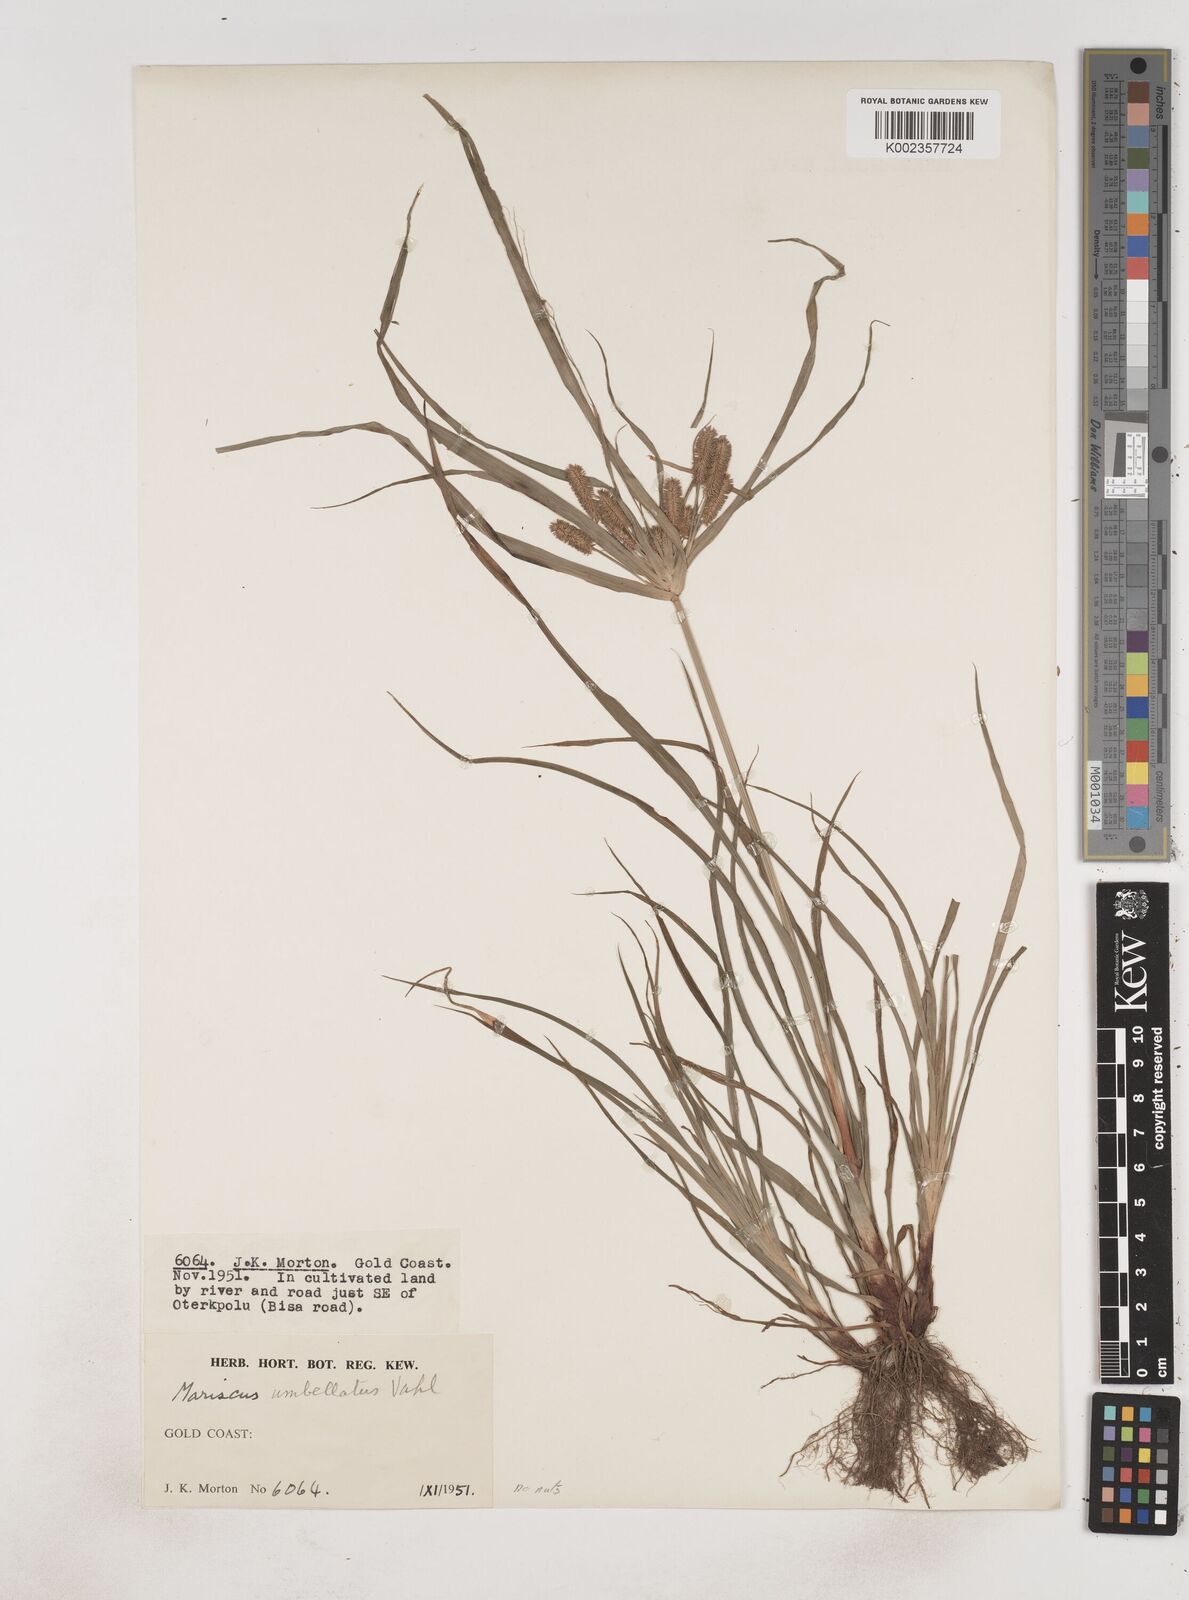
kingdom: Plantae
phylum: Tracheophyta
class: Liliopsida
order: Poales
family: Cyperaceae
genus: Cyperus
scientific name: Cyperus cyperoides
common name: Pacific island flat sedge
